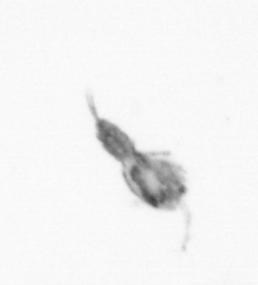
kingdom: Animalia
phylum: Arthropoda
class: Copepoda
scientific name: Copepoda
